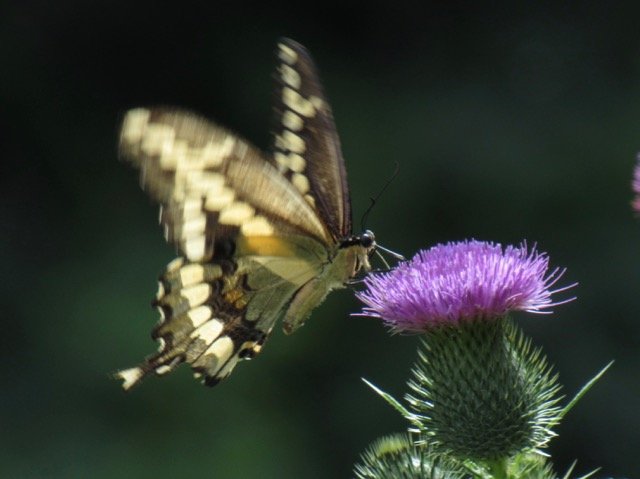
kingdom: Animalia
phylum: Arthropoda
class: Insecta
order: Lepidoptera
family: Papilionidae
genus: Papilio
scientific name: Papilio cresphontes
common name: Eastern Giant Swallowtail
